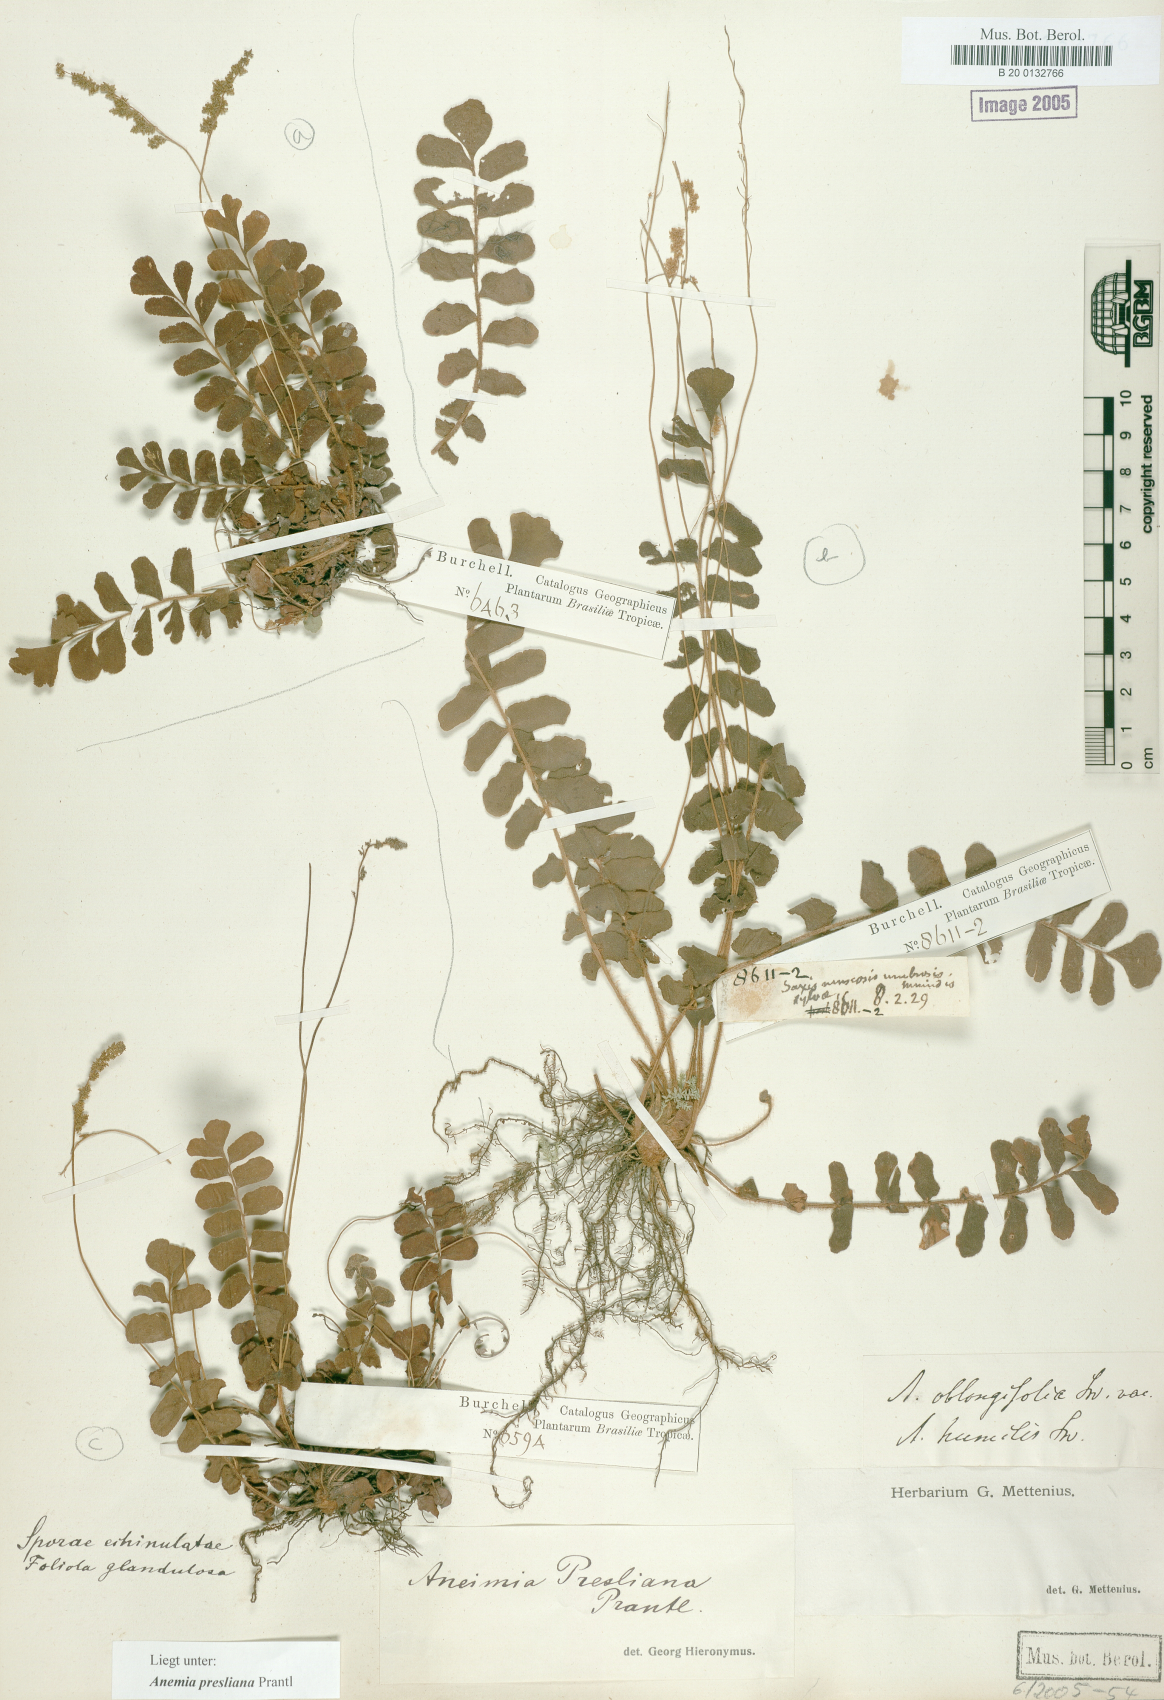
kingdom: Plantae
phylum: Tracheophyta
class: Polypodiopsida
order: Schizaeales
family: Anemiaceae
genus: Anemia
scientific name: Anemia presliana
